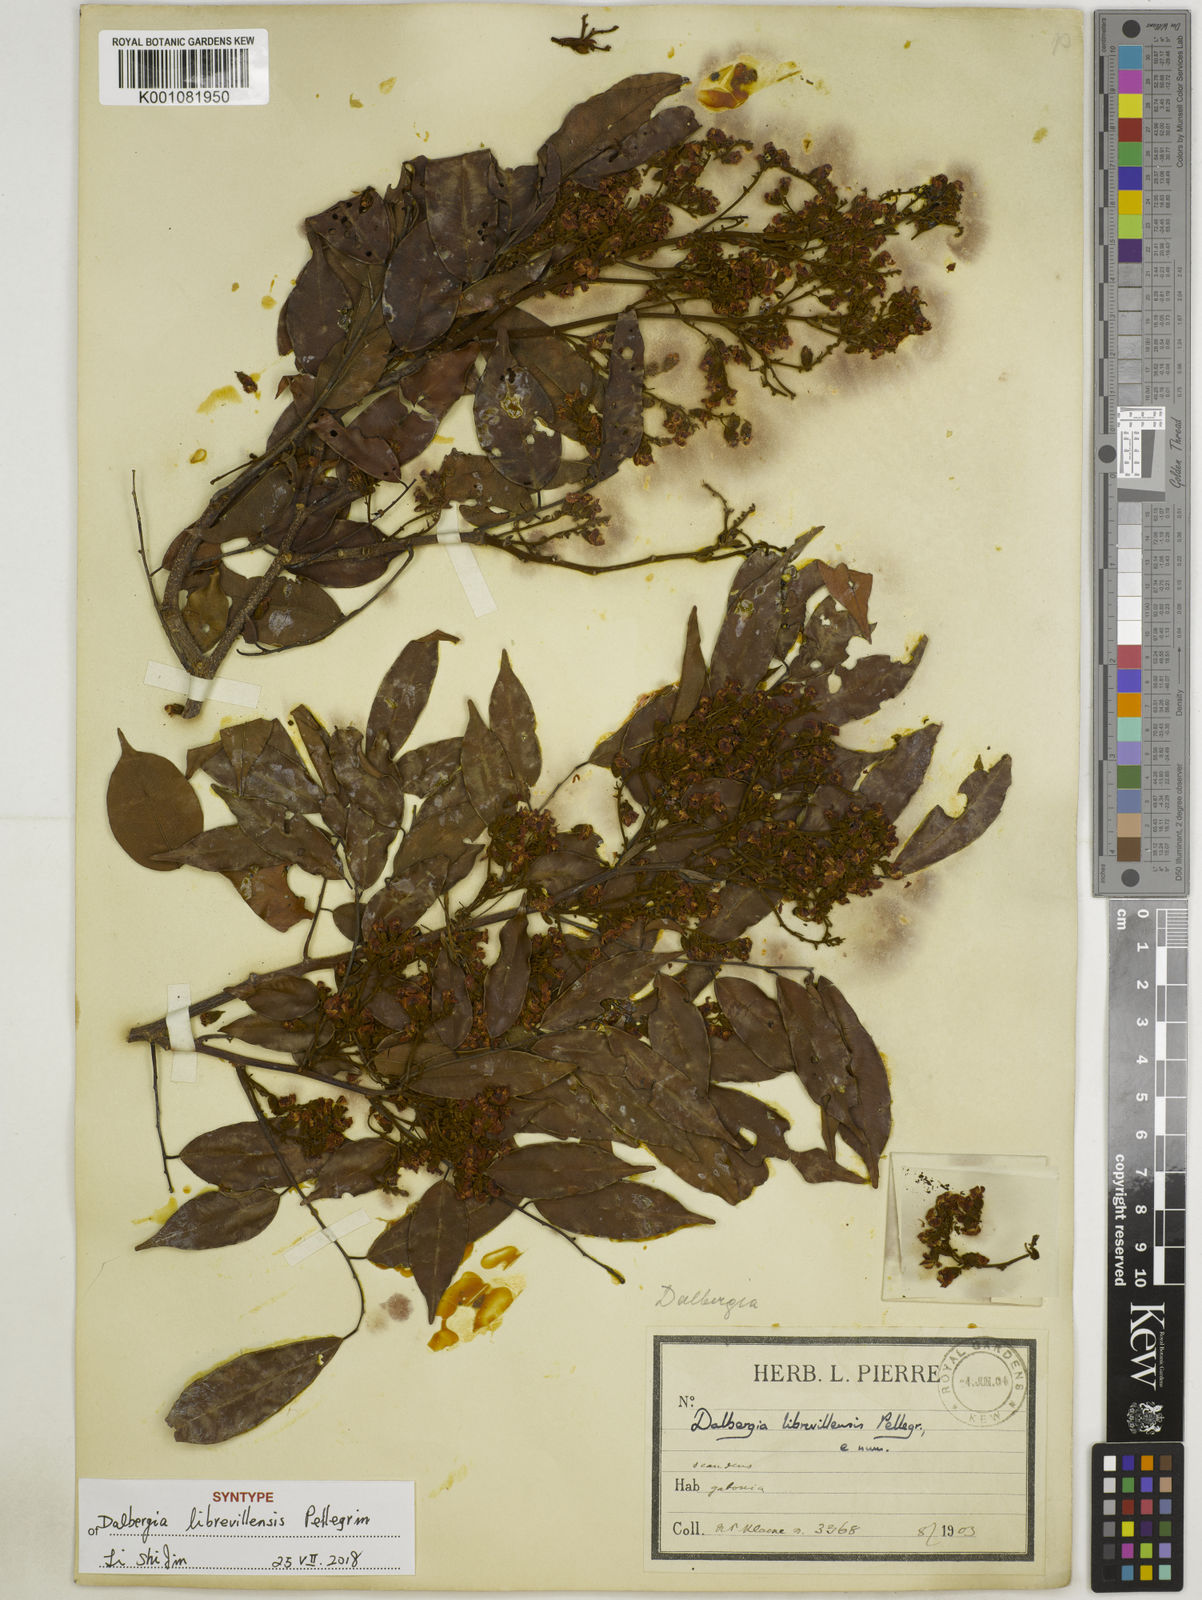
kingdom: Plantae
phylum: Tracheophyta
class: Magnoliopsida
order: Fabales
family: Fabaceae
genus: Dalbergia
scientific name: Dalbergia librevillensis
